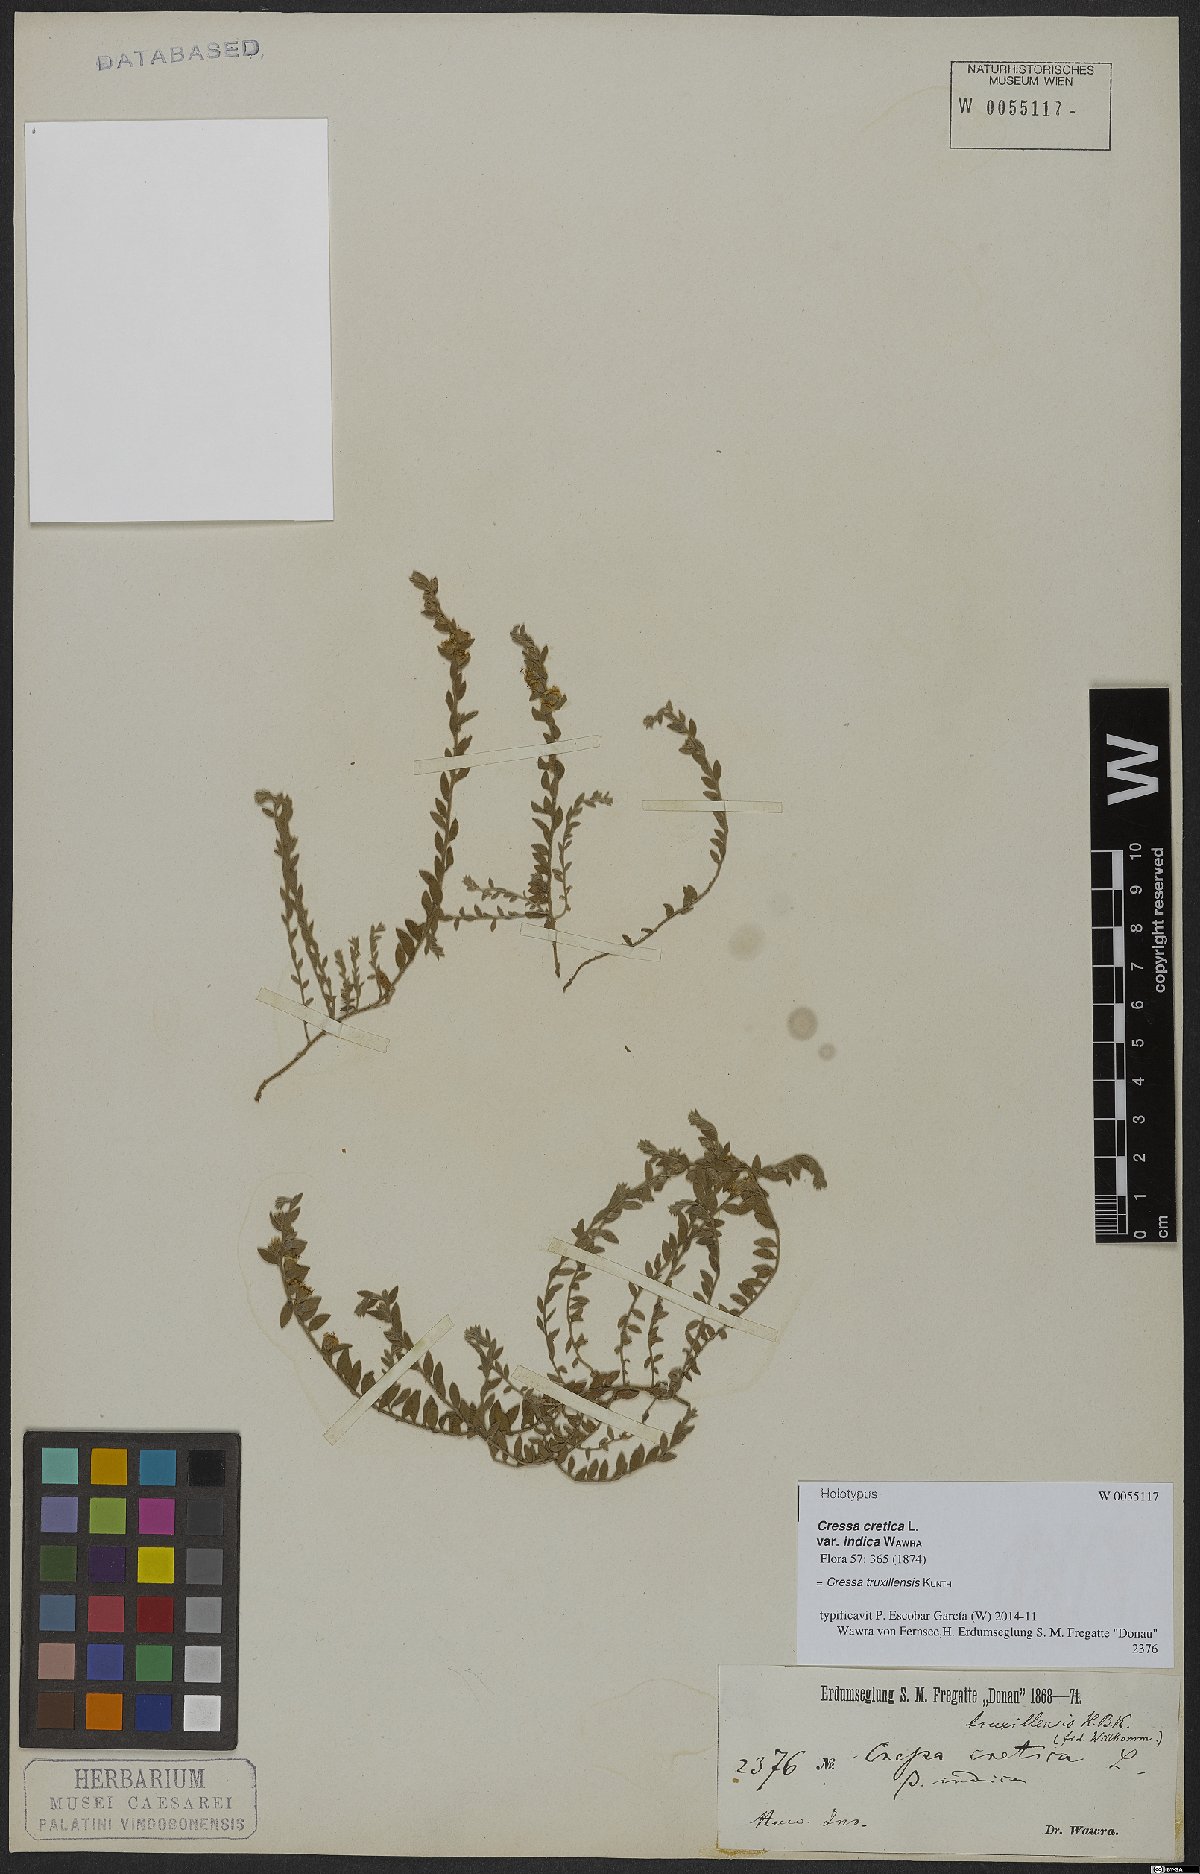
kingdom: Plantae
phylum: Tracheophyta
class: Magnoliopsida
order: Solanales
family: Convolvulaceae
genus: Cressa
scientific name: Cressa truxillensis
